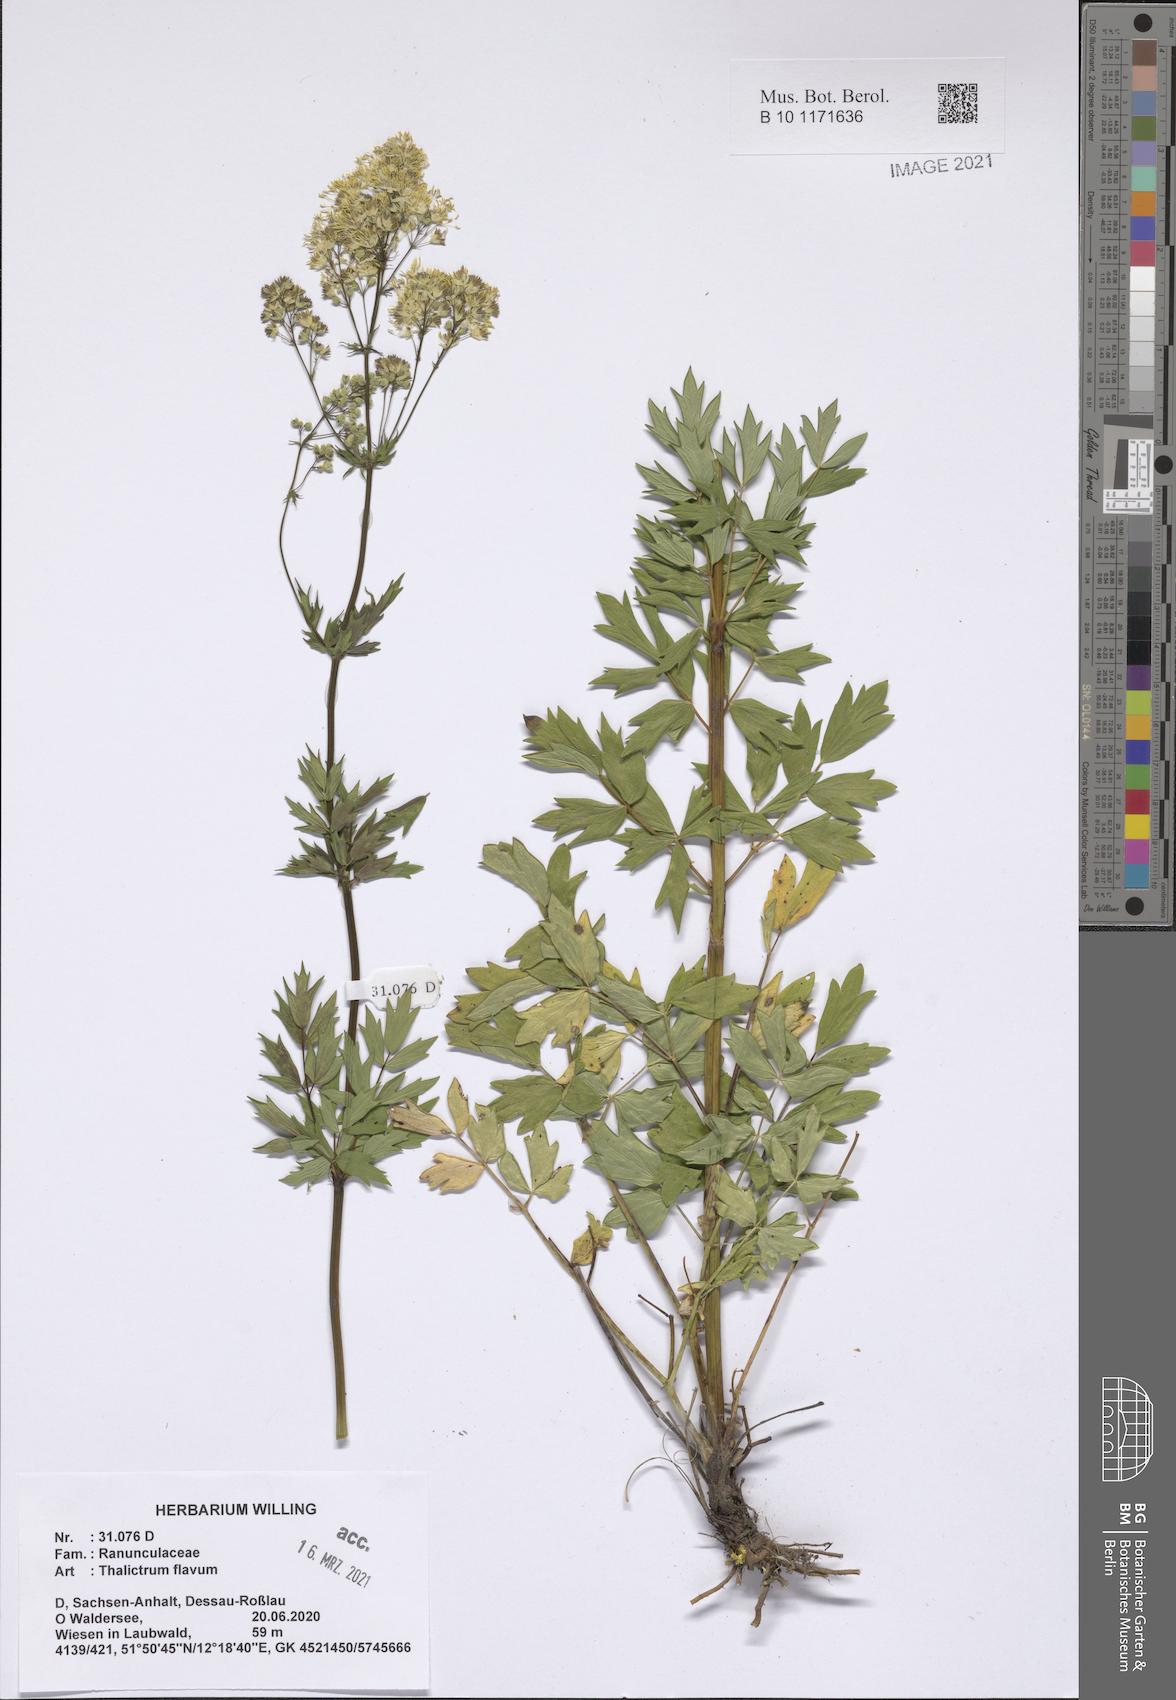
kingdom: Plantae
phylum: Tracheophyta
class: Magnoliopsida
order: Ranunculales
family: Ranunculaceae
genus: Thalictrum
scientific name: Thalictrum flavum
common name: Common meadow-rue
